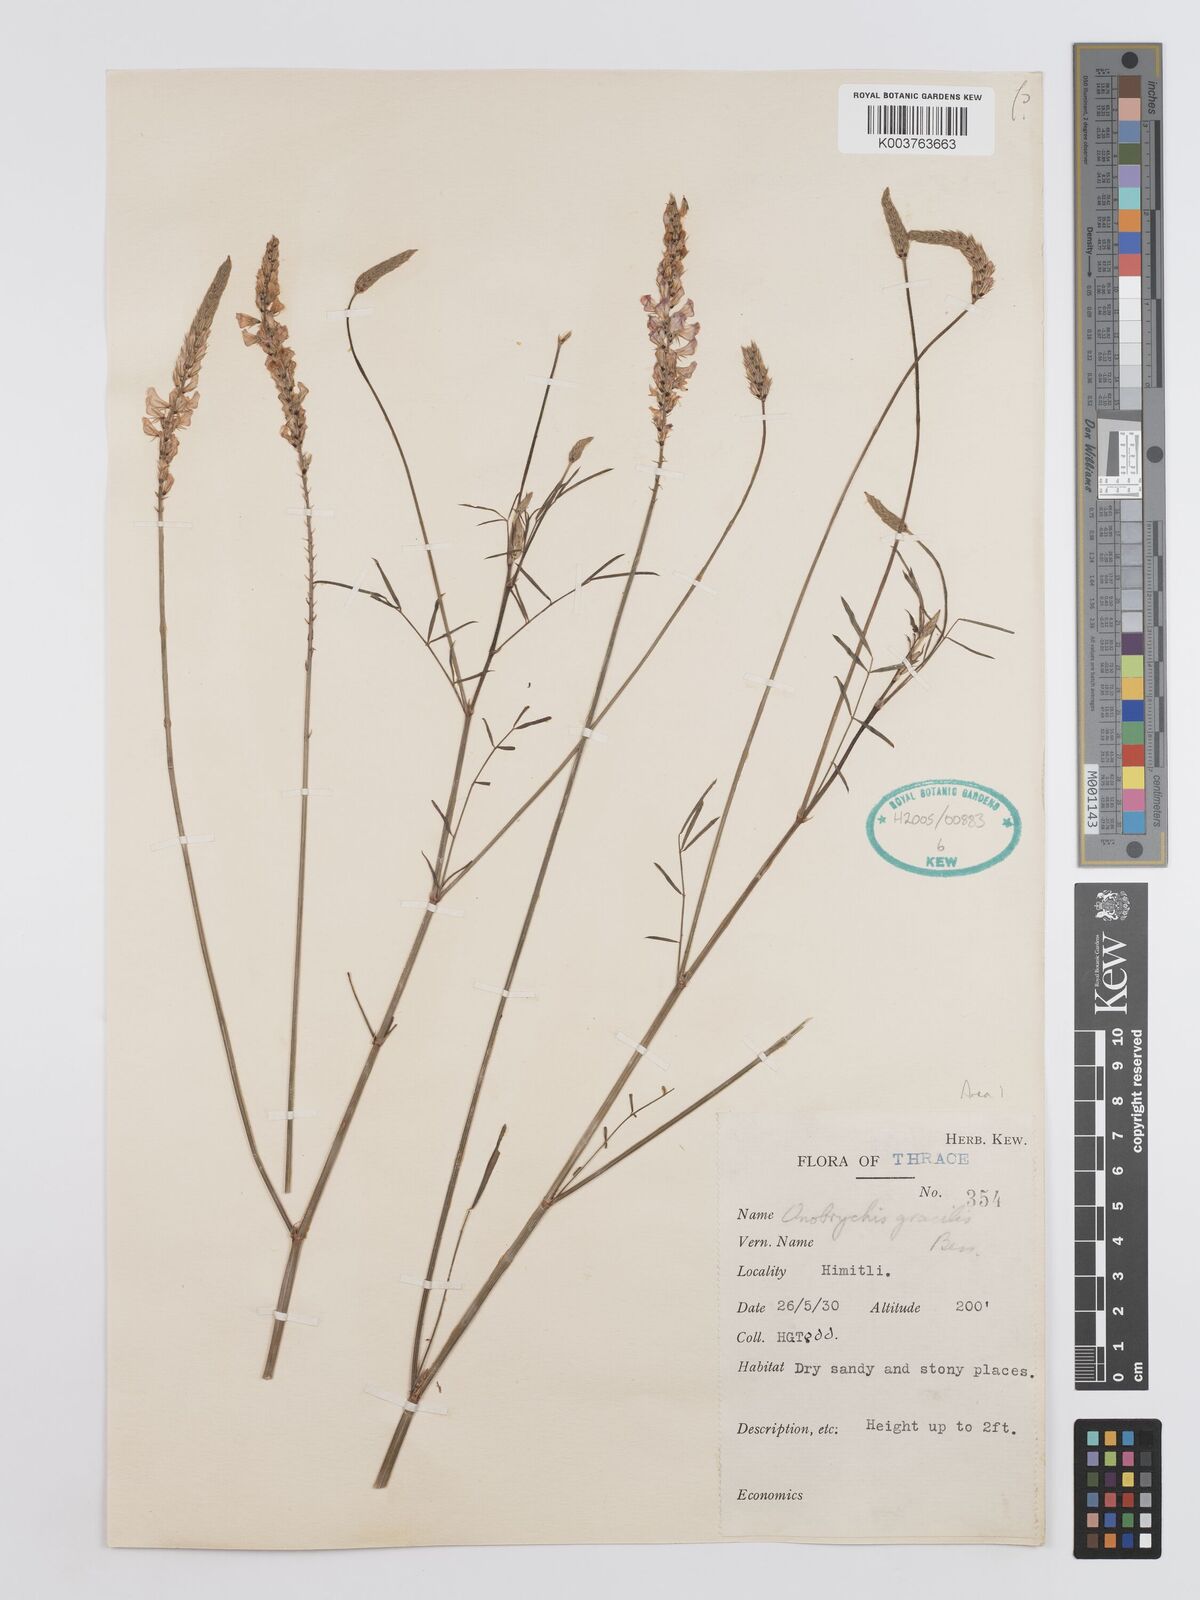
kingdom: Plantae
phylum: Tracheophyta
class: Magnoliopsida
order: Fabales
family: Fabaceae
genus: Onobrychis
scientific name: Onobrychis gracilis
